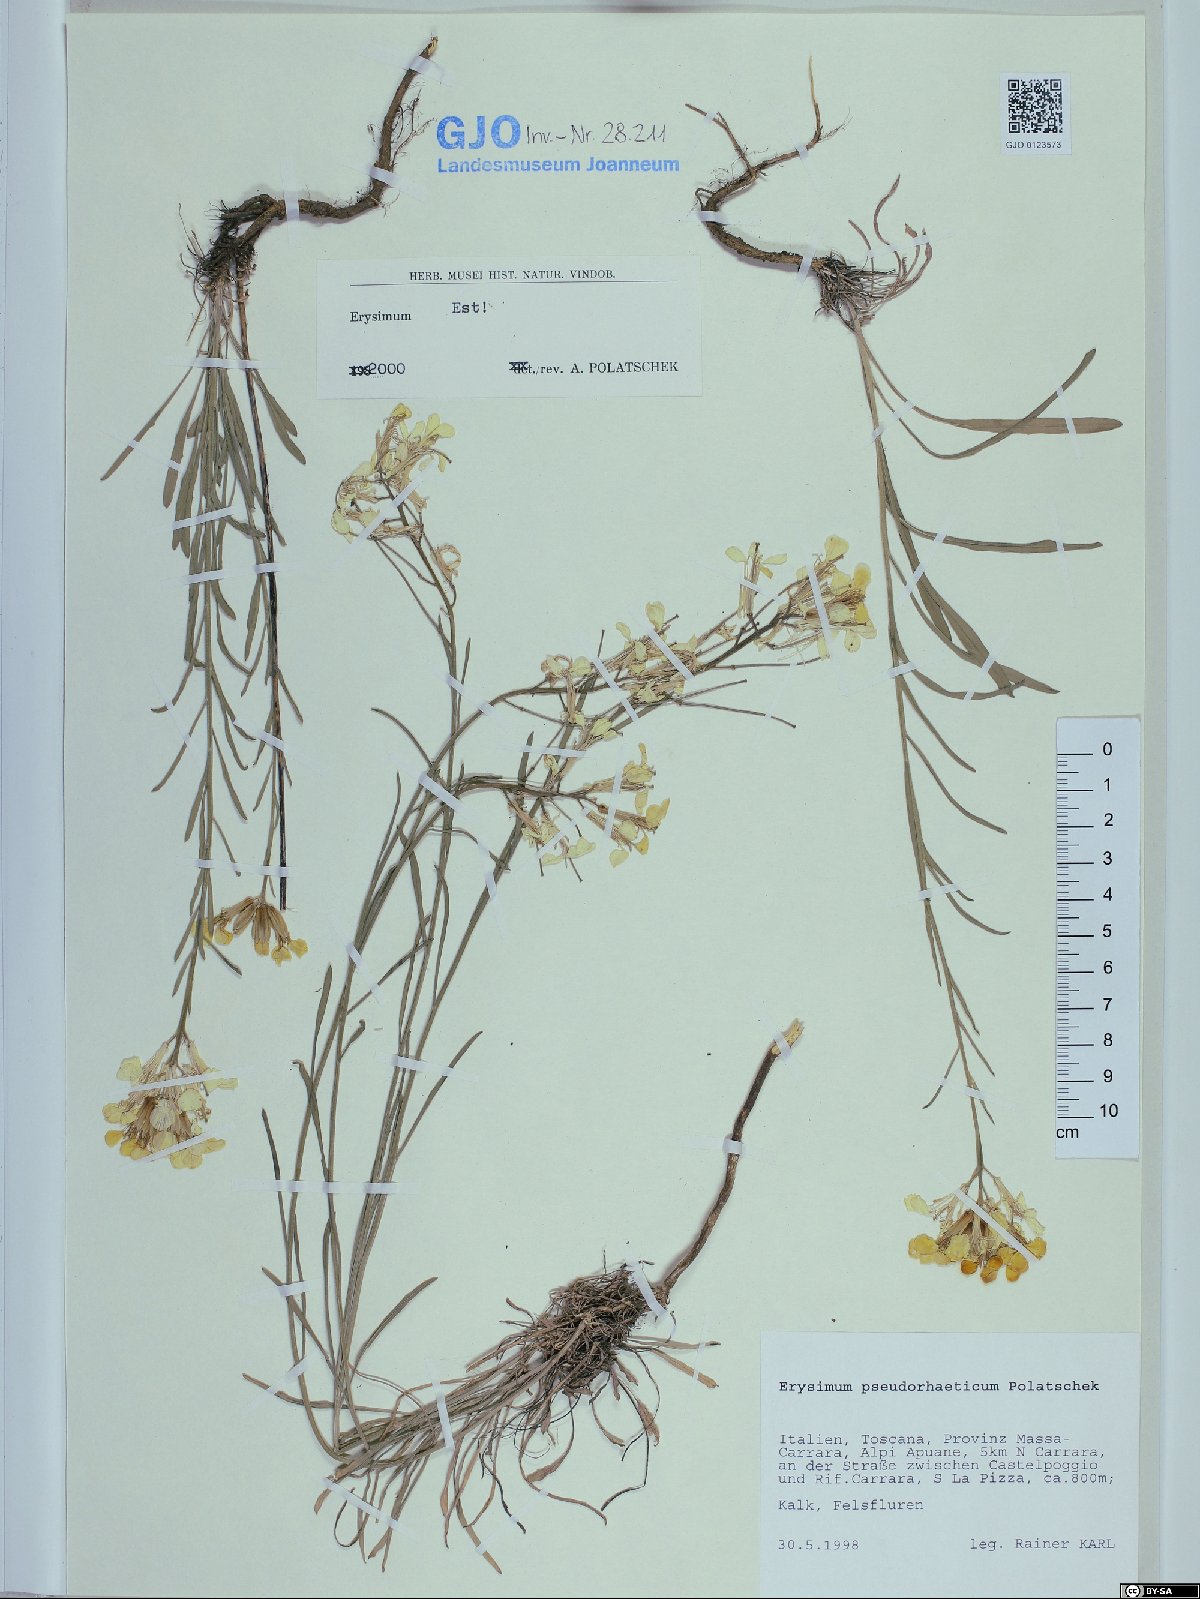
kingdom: Plantae
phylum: Tracheophyta
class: Magnoliopsida
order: Brassicales
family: Brassicaceae
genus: Erysimum
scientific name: Erysimum pseudorhaeticum
